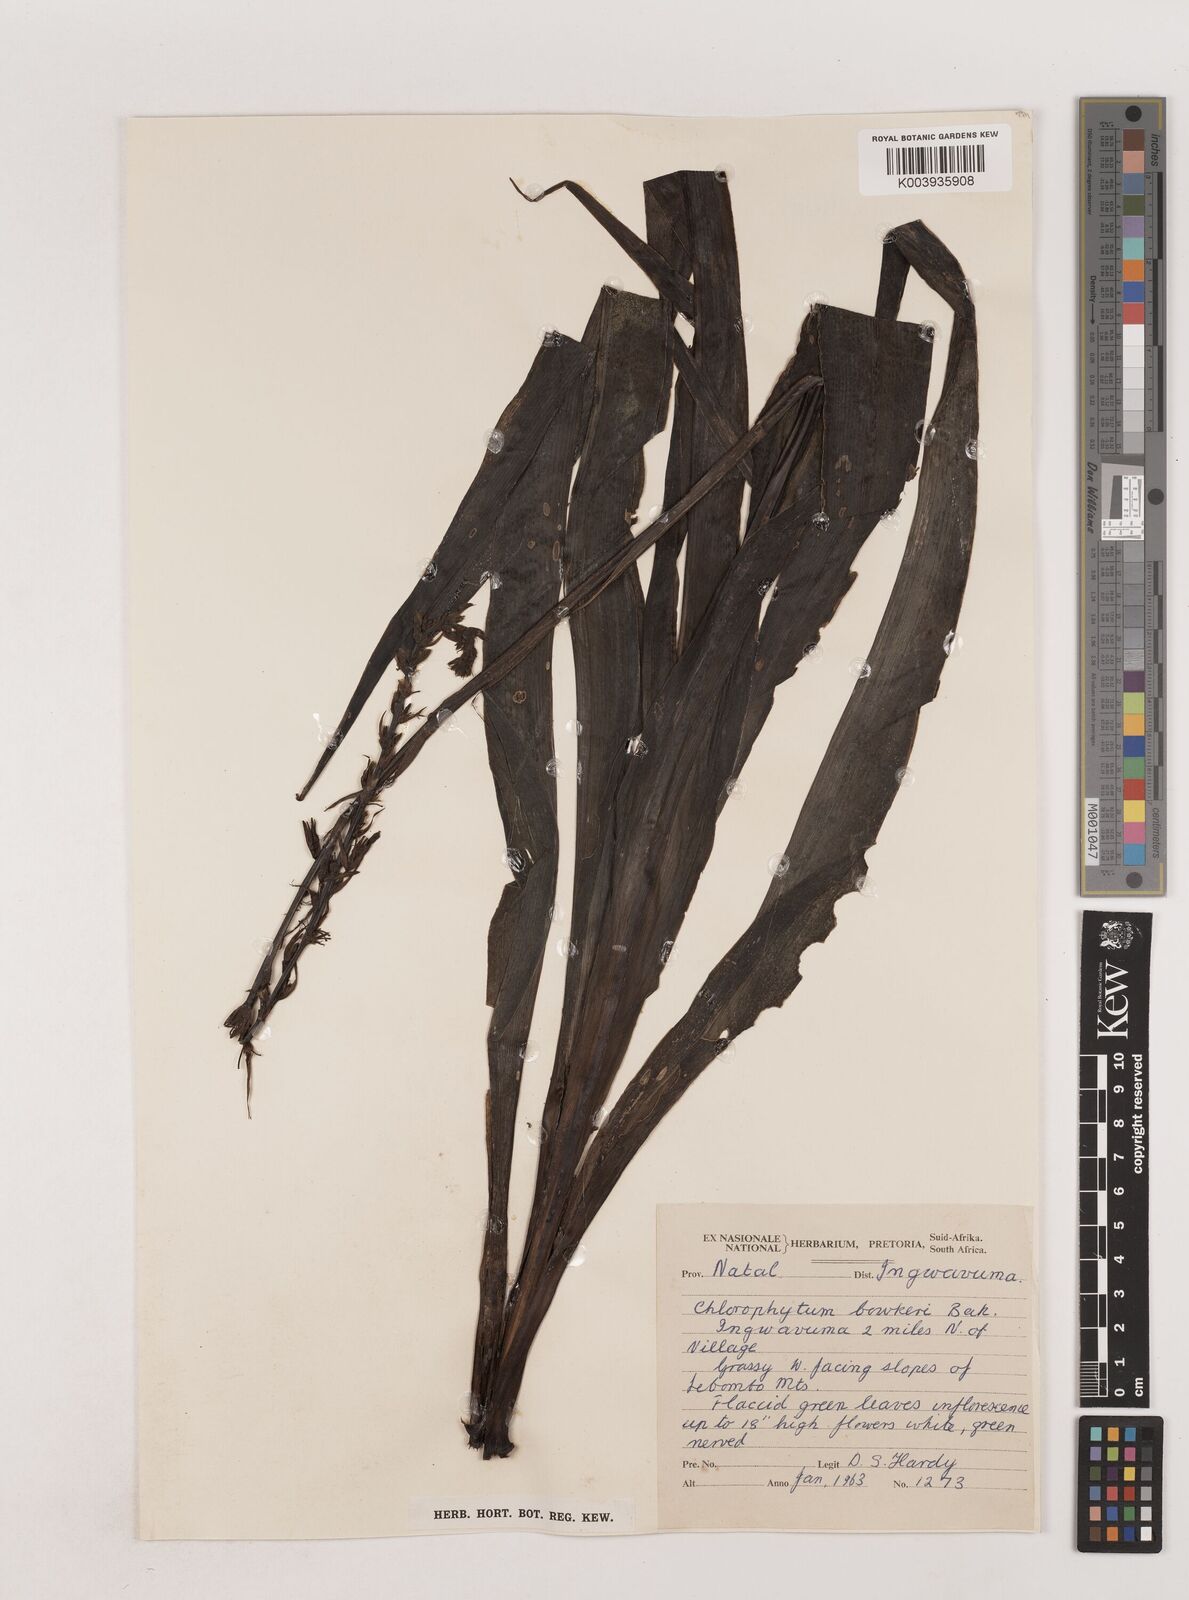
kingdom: Plantae
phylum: Tracheophyta
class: Liliopsida
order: Asparagales
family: Asparagaceae
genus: Chlorophytum
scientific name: Chlorophytum bowkeri
